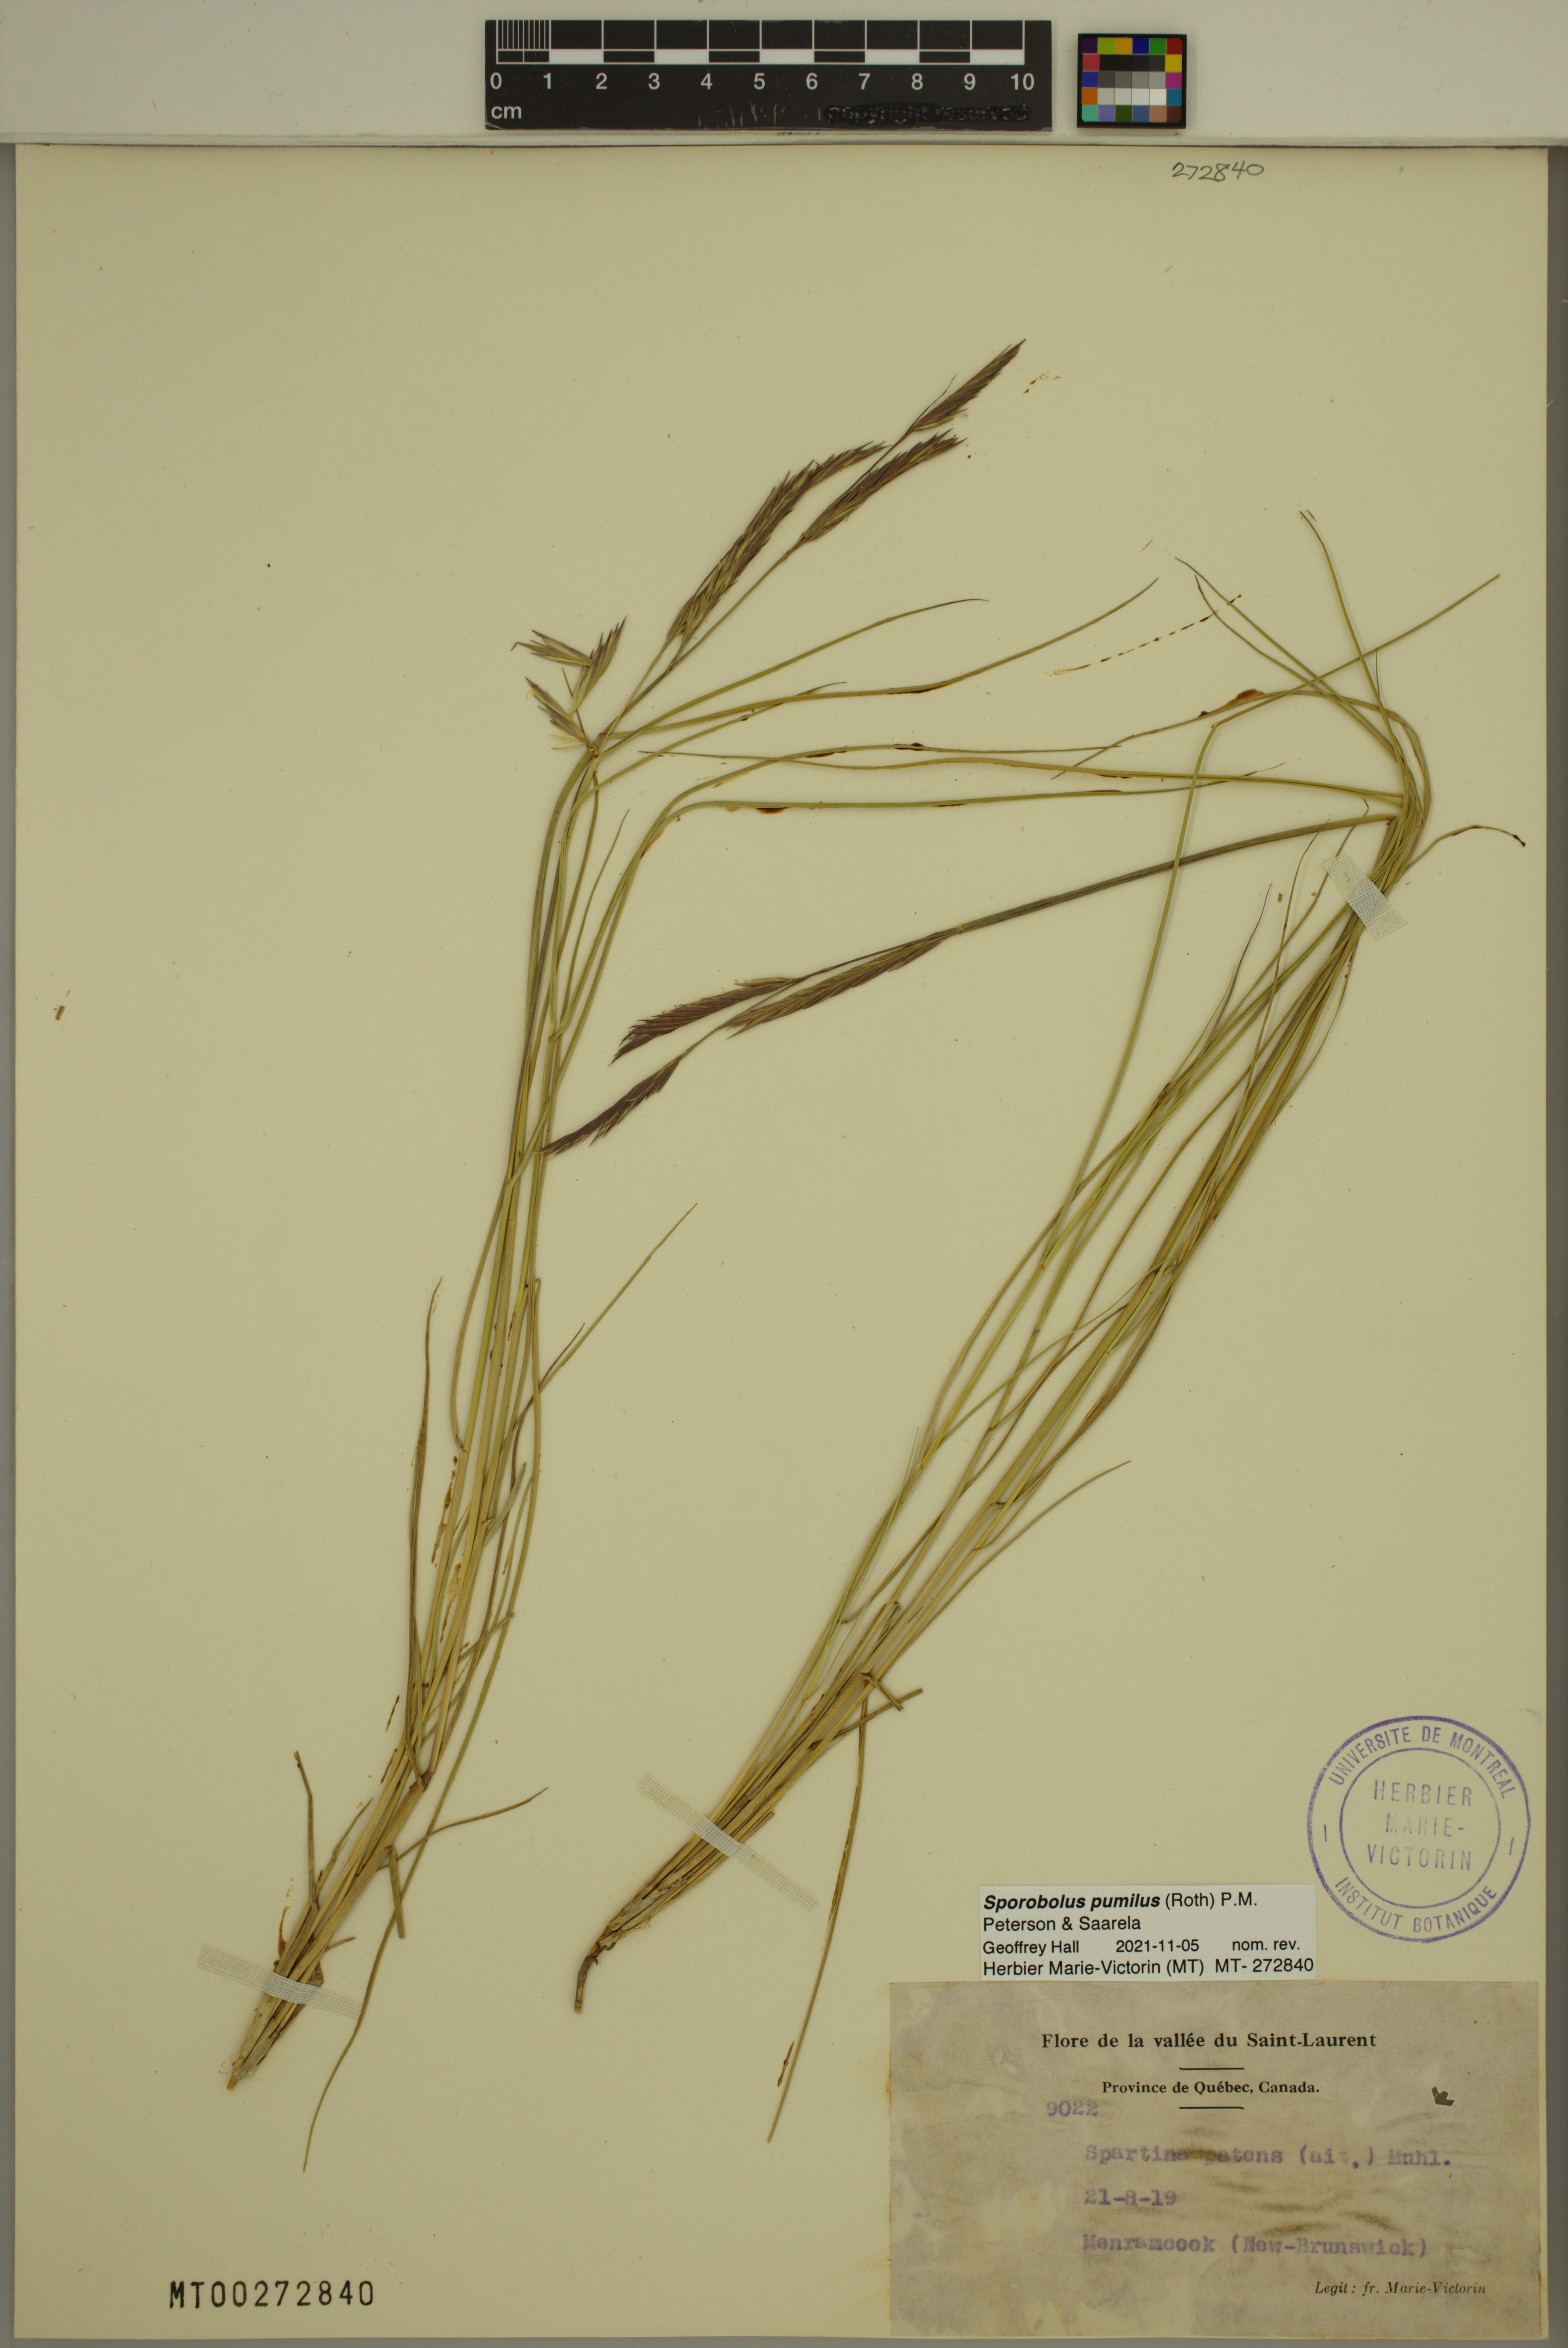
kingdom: Plantae
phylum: Tracheophyta
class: Liliopsida
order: Poales
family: Poaceae
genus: Sporobolus
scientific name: Sporobolus pumilus
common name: Highwater grass
